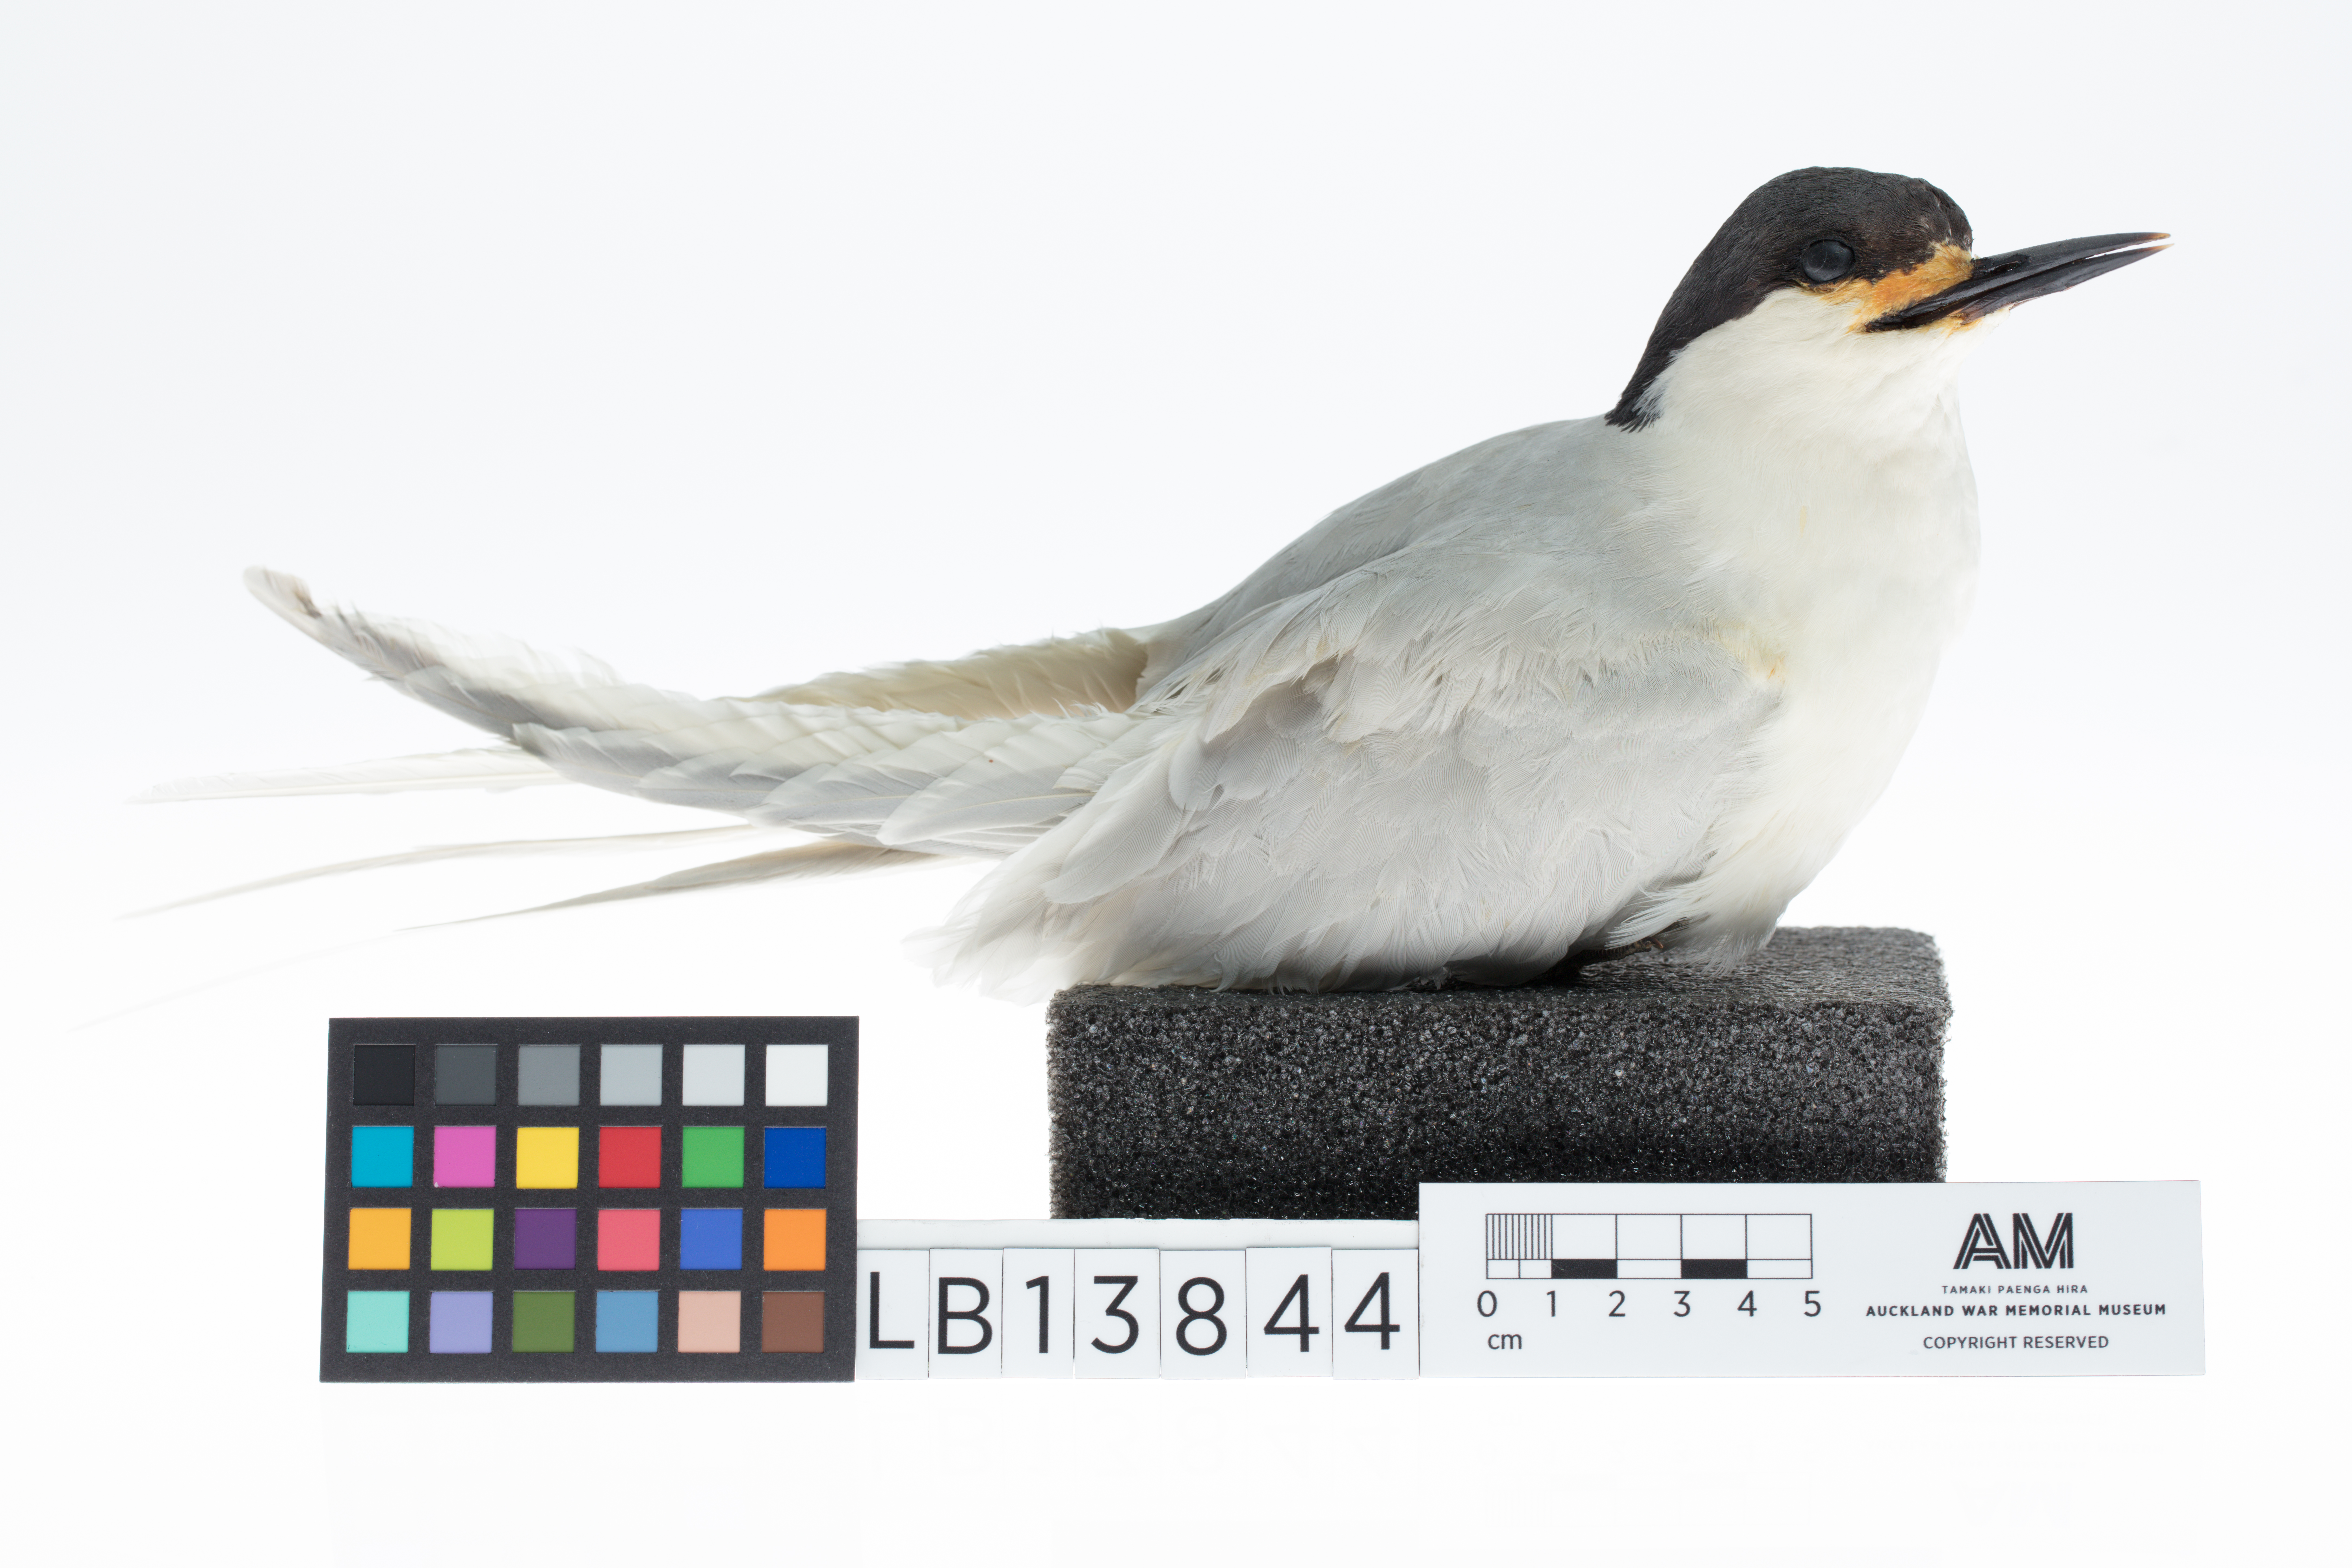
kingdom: Animalia
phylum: Chordata
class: Aves
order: Charadriiformes
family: Laridae
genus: Sterna
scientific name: Sterna striata
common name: White-fronted tern
